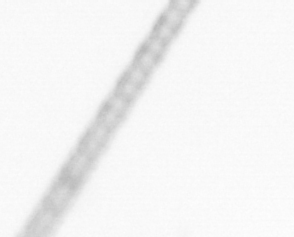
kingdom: Chromista
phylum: Ochrophyta
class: Bacillariophyceae
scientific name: Bacillariophyceae
